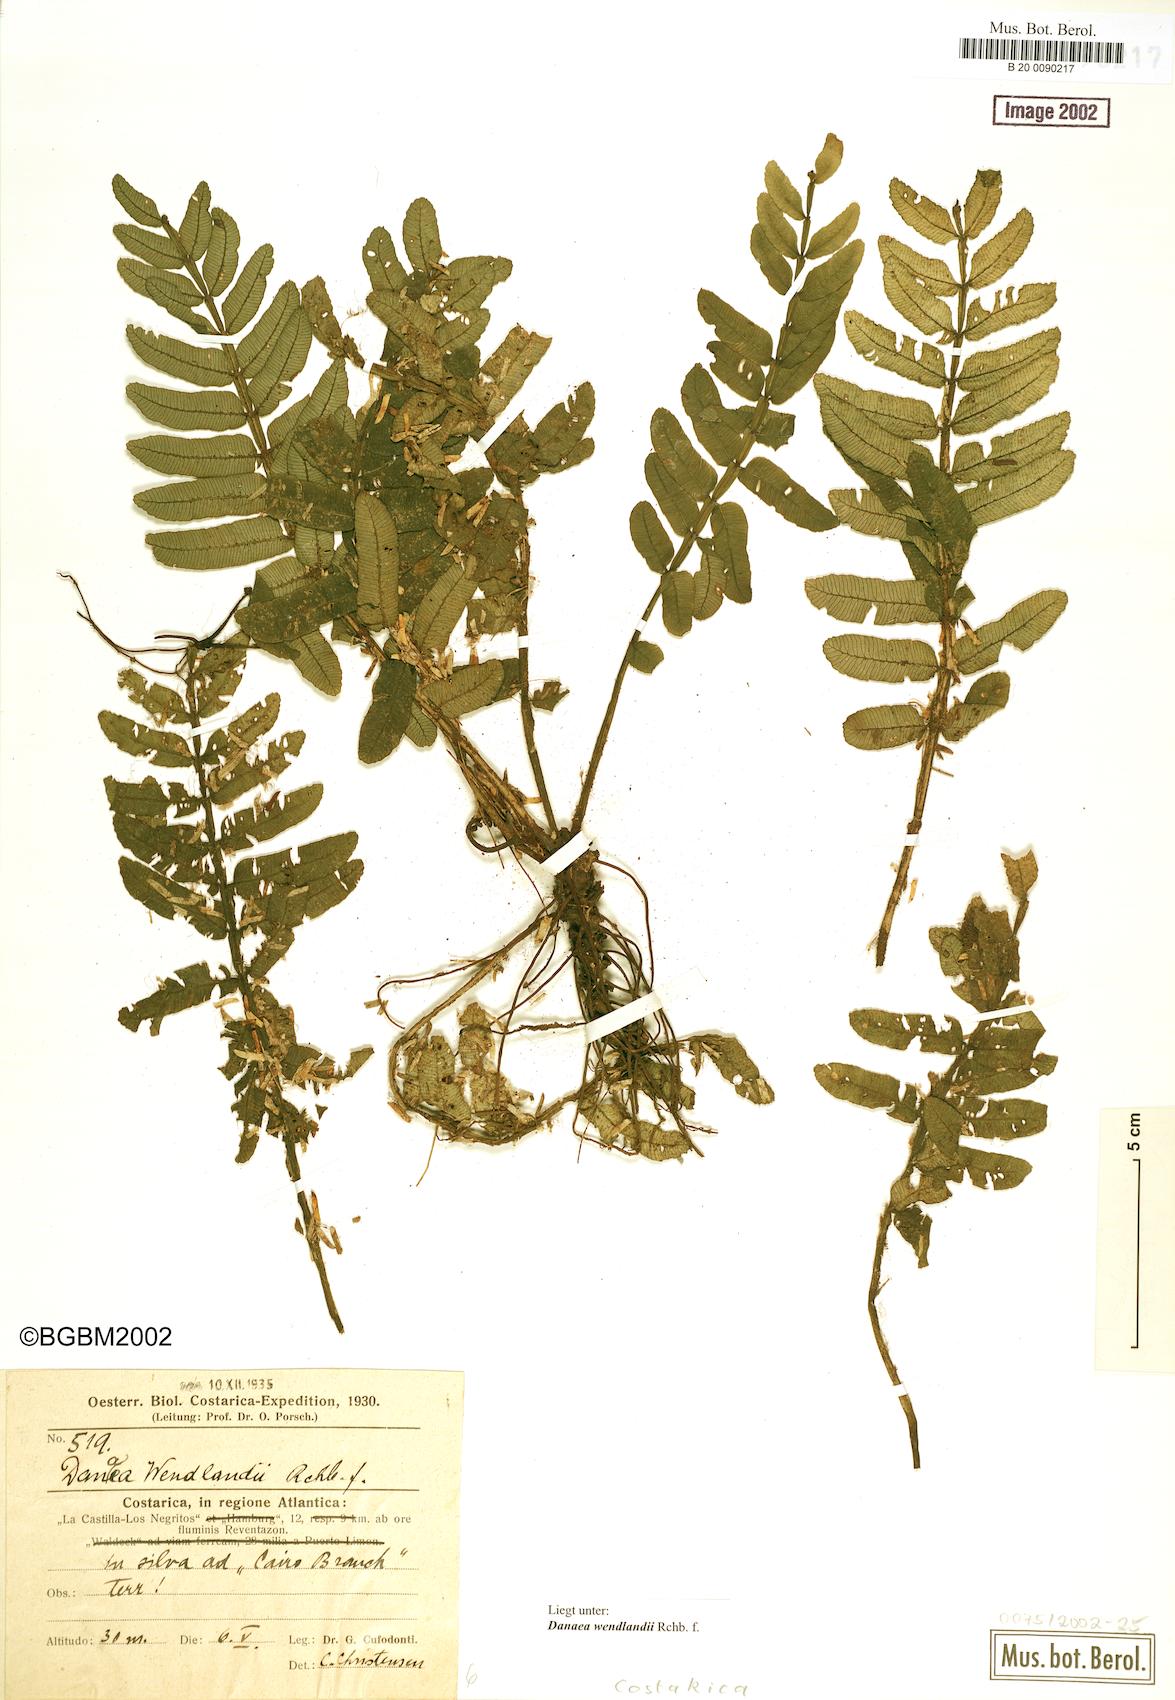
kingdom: Plantae
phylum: Tracheophyta
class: Polypodiopsida
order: Marattiales
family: Marattiaceae
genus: Danaea
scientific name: Danaea wendlandii
